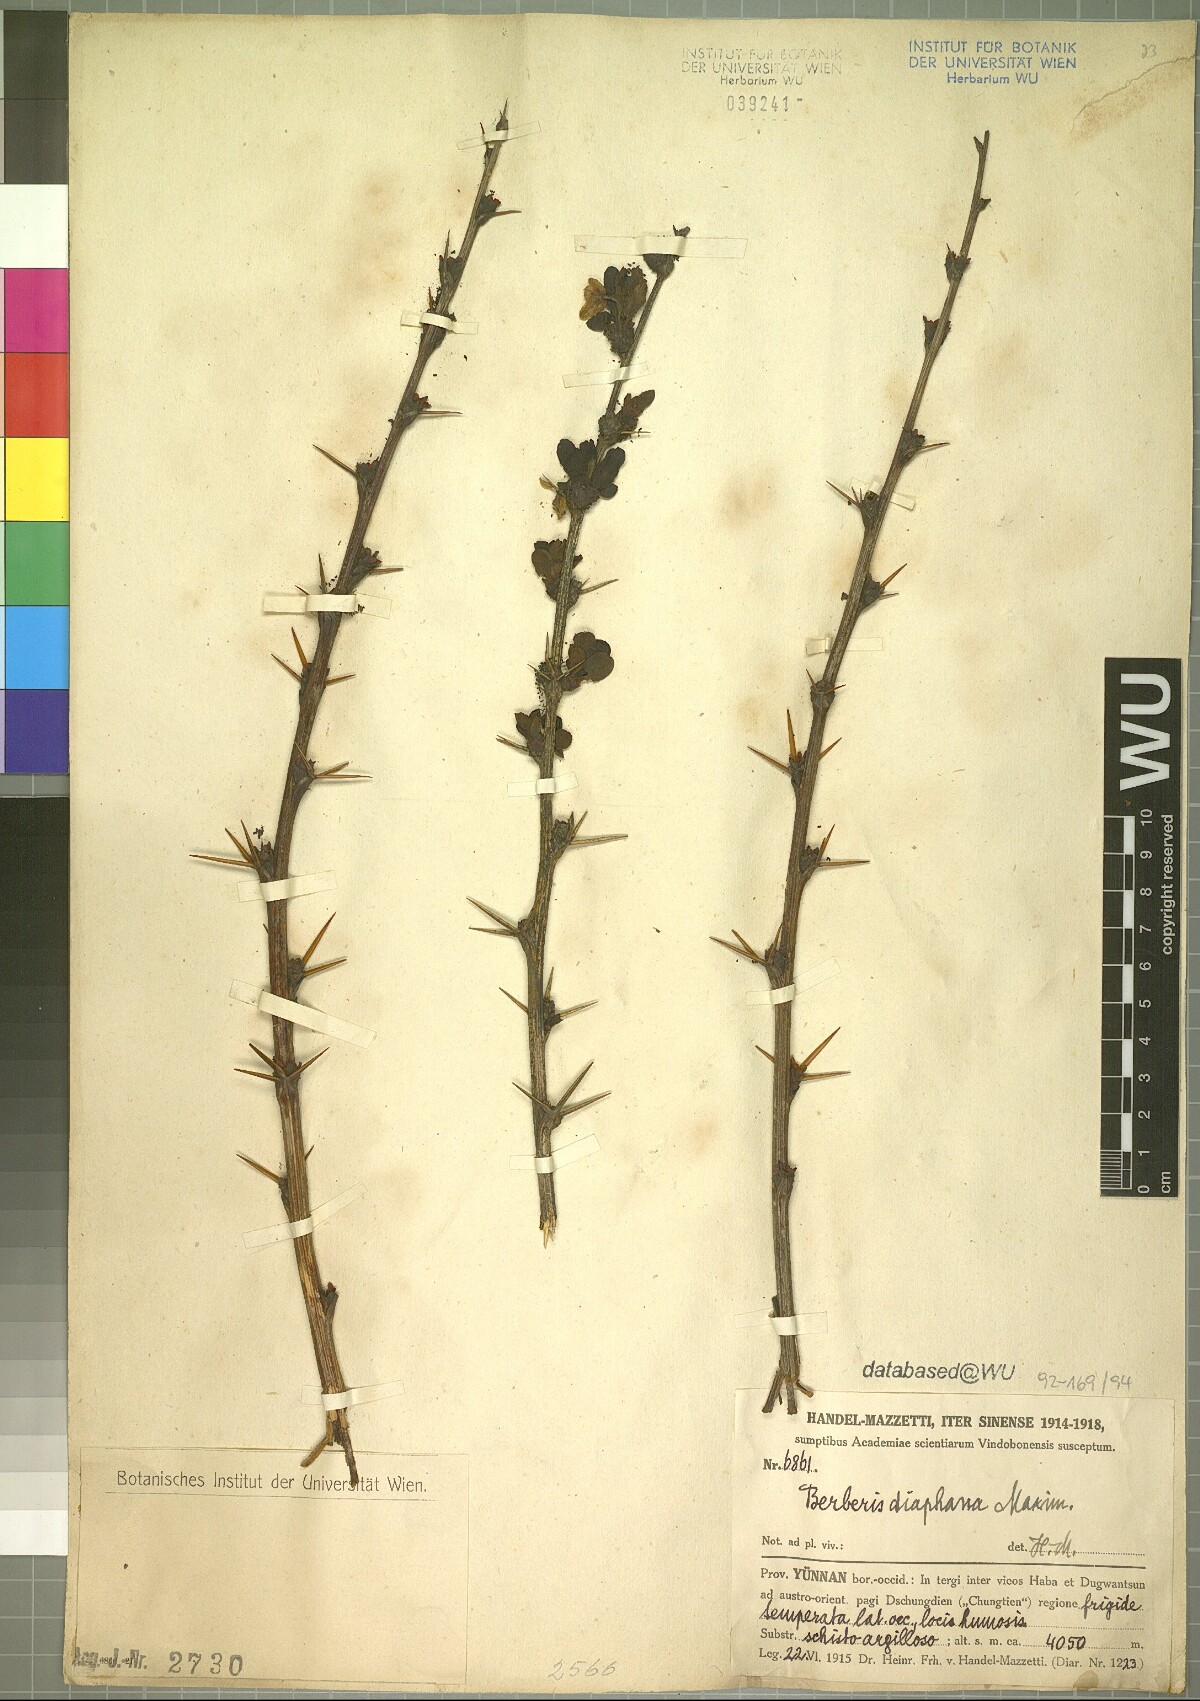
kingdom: Plantae
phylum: Tracheophyta
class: Magnoliopsida
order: Ranunculales
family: Berberidaceae
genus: Berberis
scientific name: Berberis diaphana
